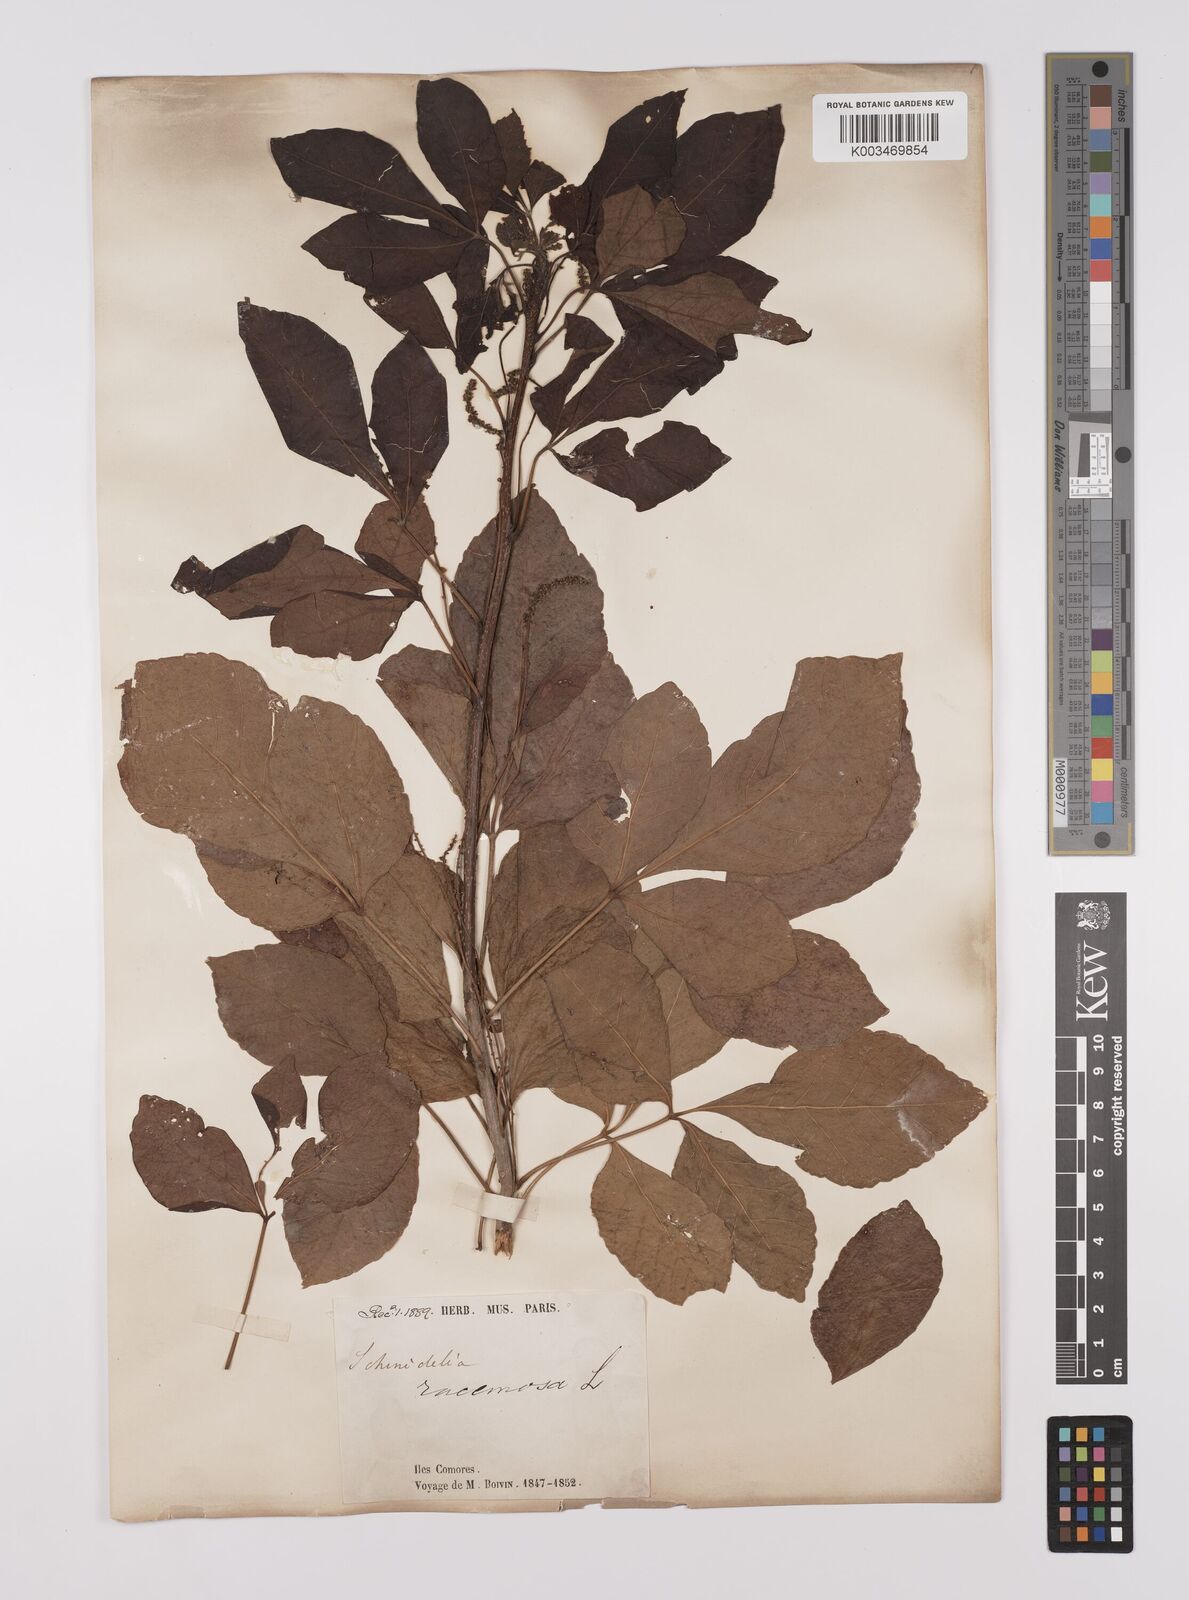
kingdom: Plantae
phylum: Tracheophyta
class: Magnoliopsida
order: Sapindales
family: Sapindaceae
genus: Allophylus
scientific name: Allophylus
